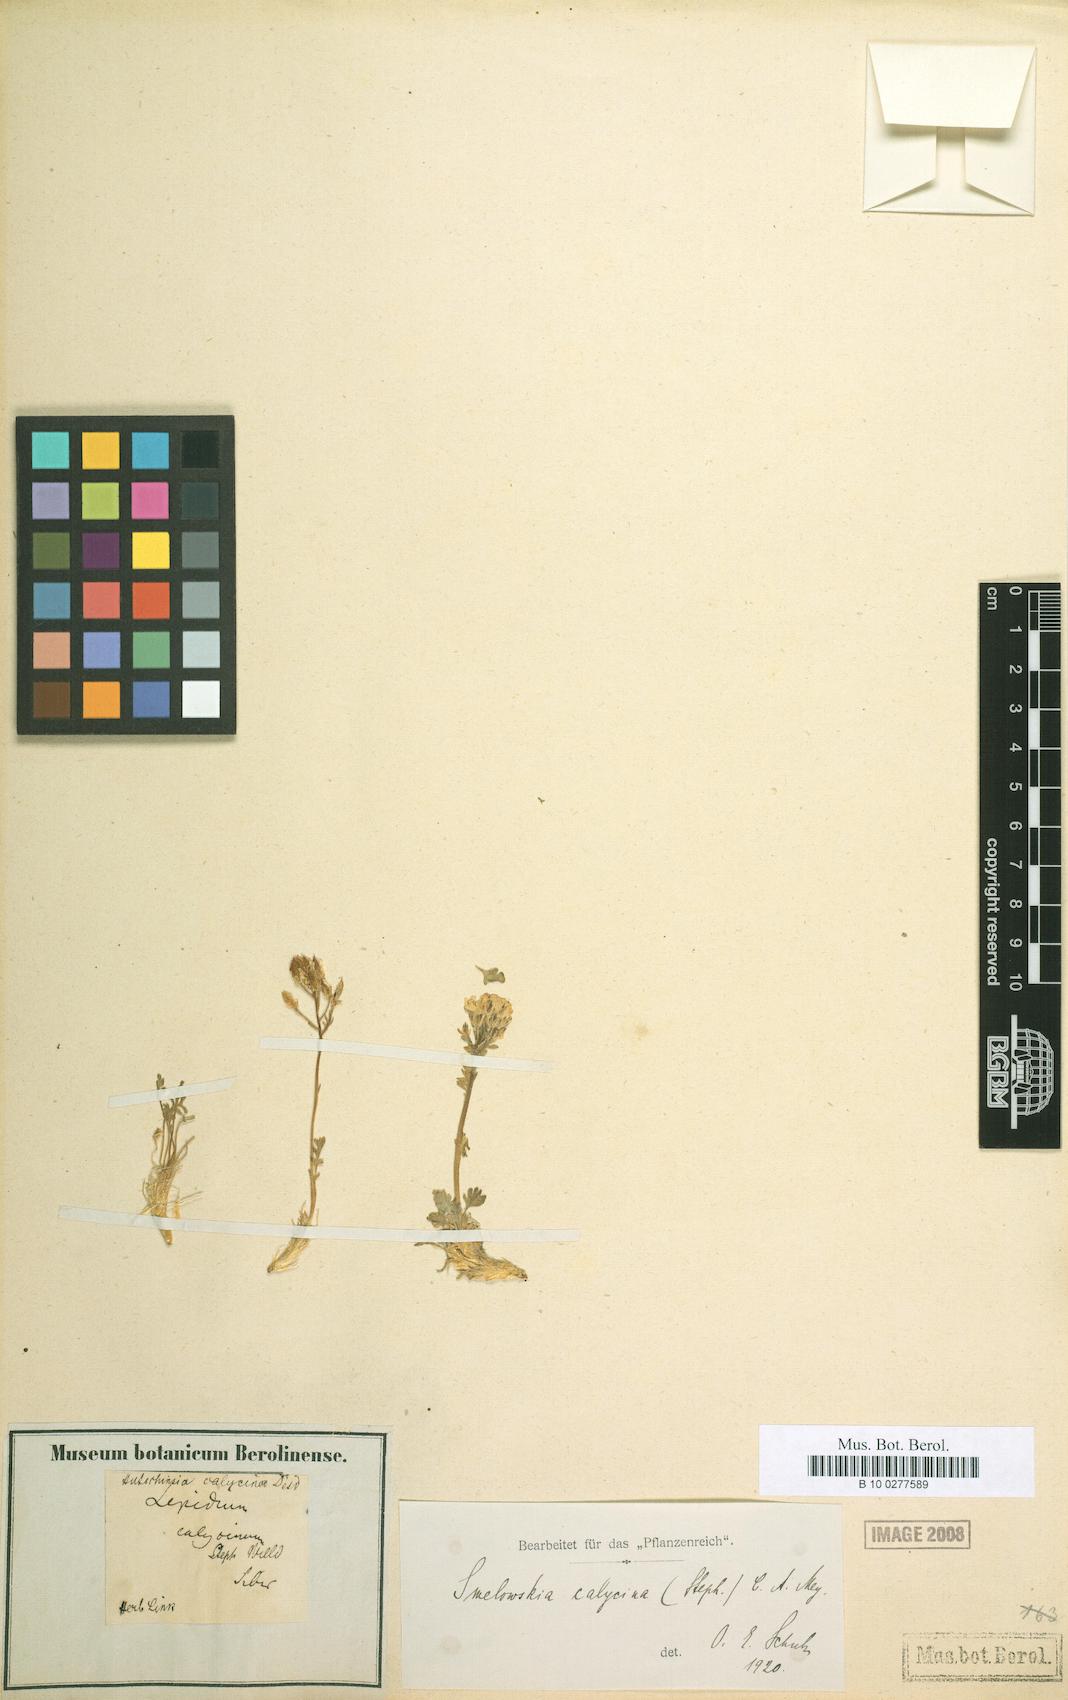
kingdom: Plantae
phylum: Tracheophyta
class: Magnoliopsida
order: Brassicales
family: Brassicaceae
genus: Smelowskia
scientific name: Smelowskia calycina
